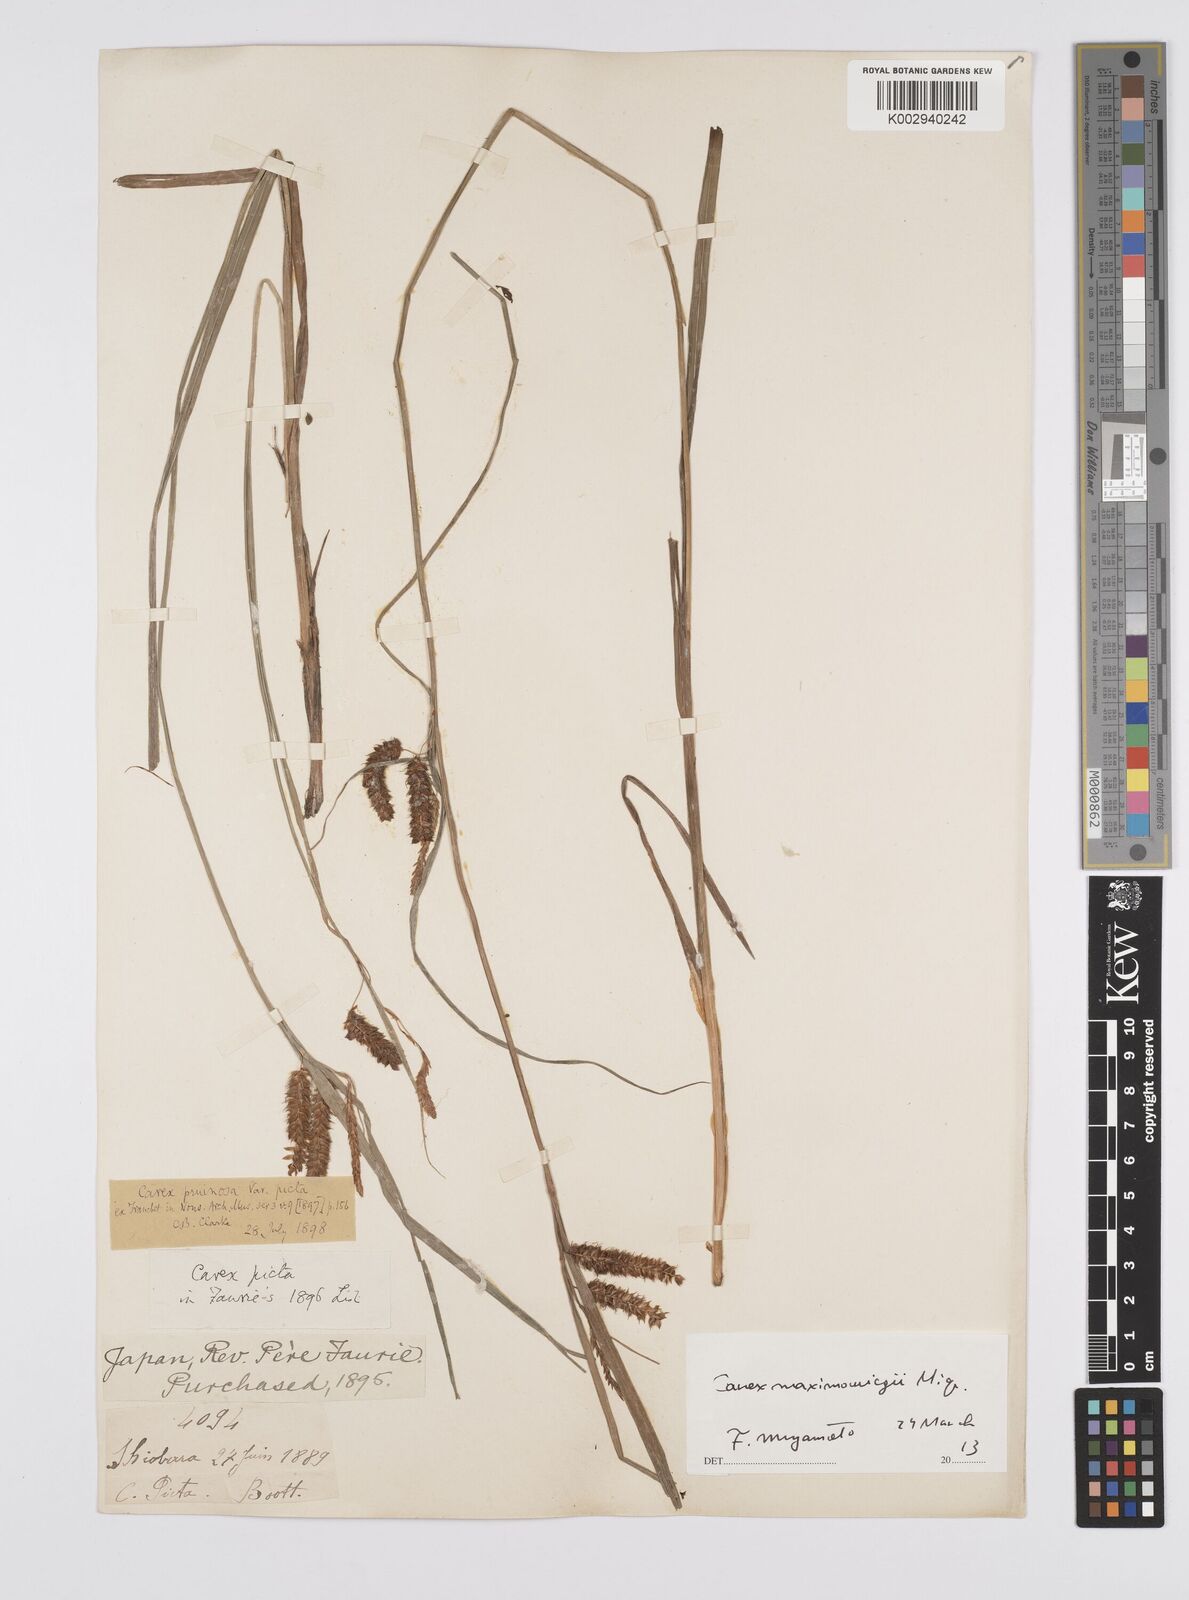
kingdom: Plantae
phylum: Tracheophyta
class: Liliopsida
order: Poales
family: Cyperaceae
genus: Carex
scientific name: Carex pruinosa
